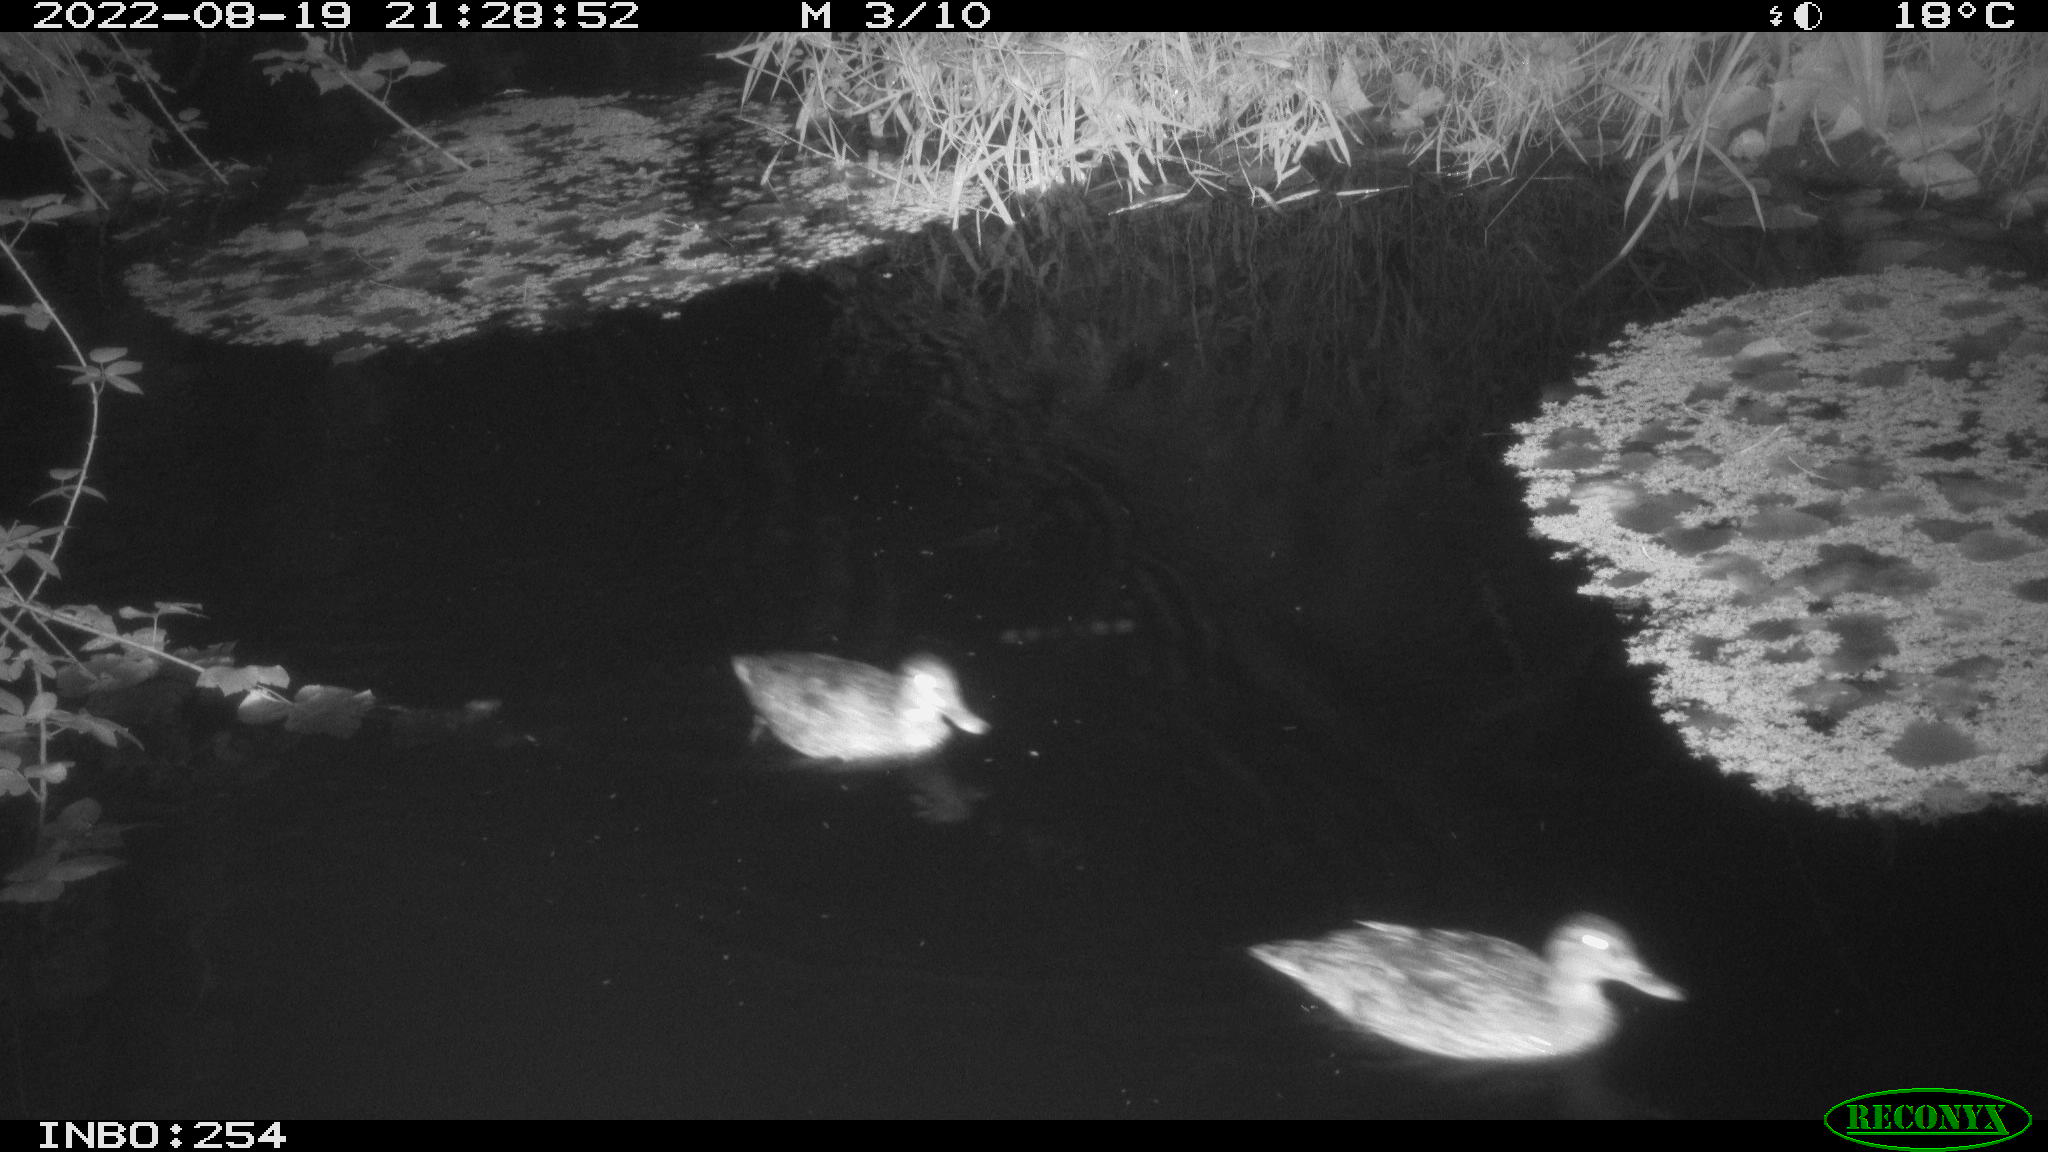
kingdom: Animalia
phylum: Chordata
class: Aves
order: Anseriformes
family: Anatidae
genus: Anas
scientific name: Anas platyrhynchos
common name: Mallard
